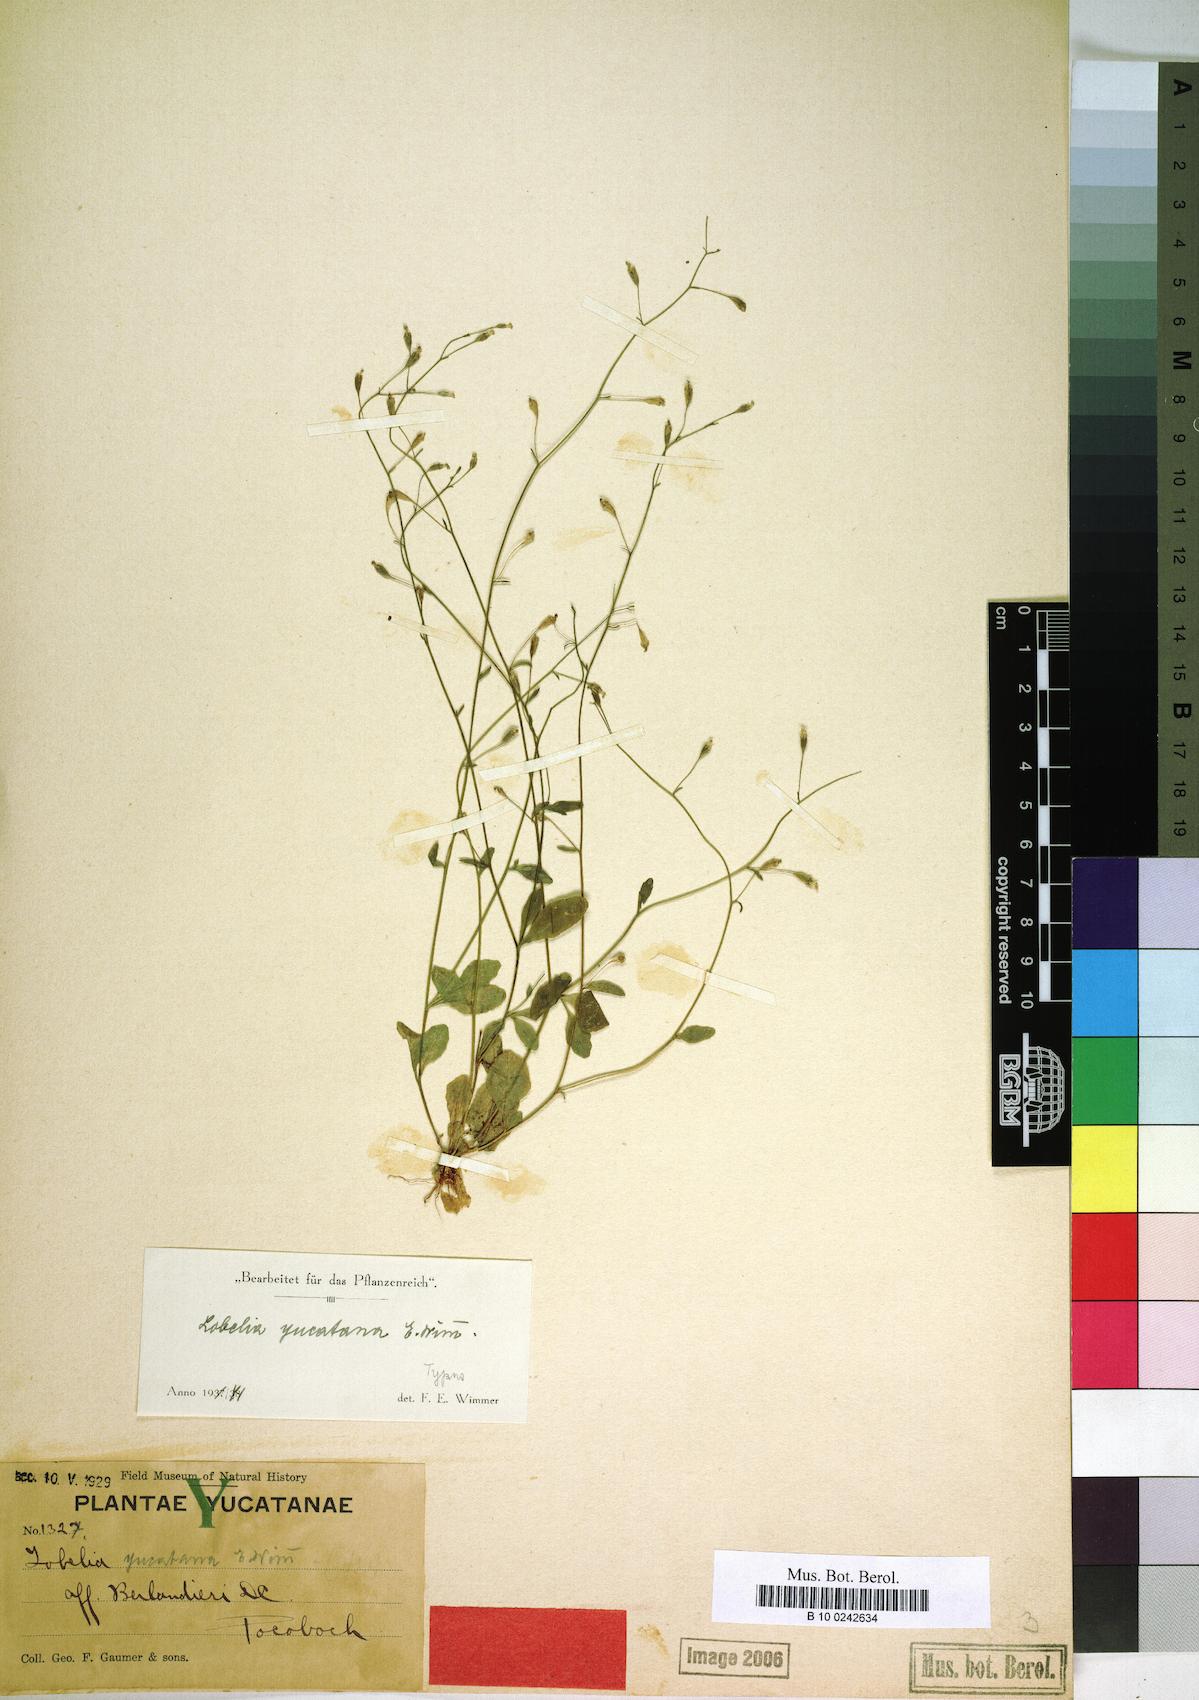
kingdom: Plantae
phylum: Tracheophyta
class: Magnoliopsida
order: Asterales
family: Campanulaceae
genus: Lobelia
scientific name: Lobelia yucatana
